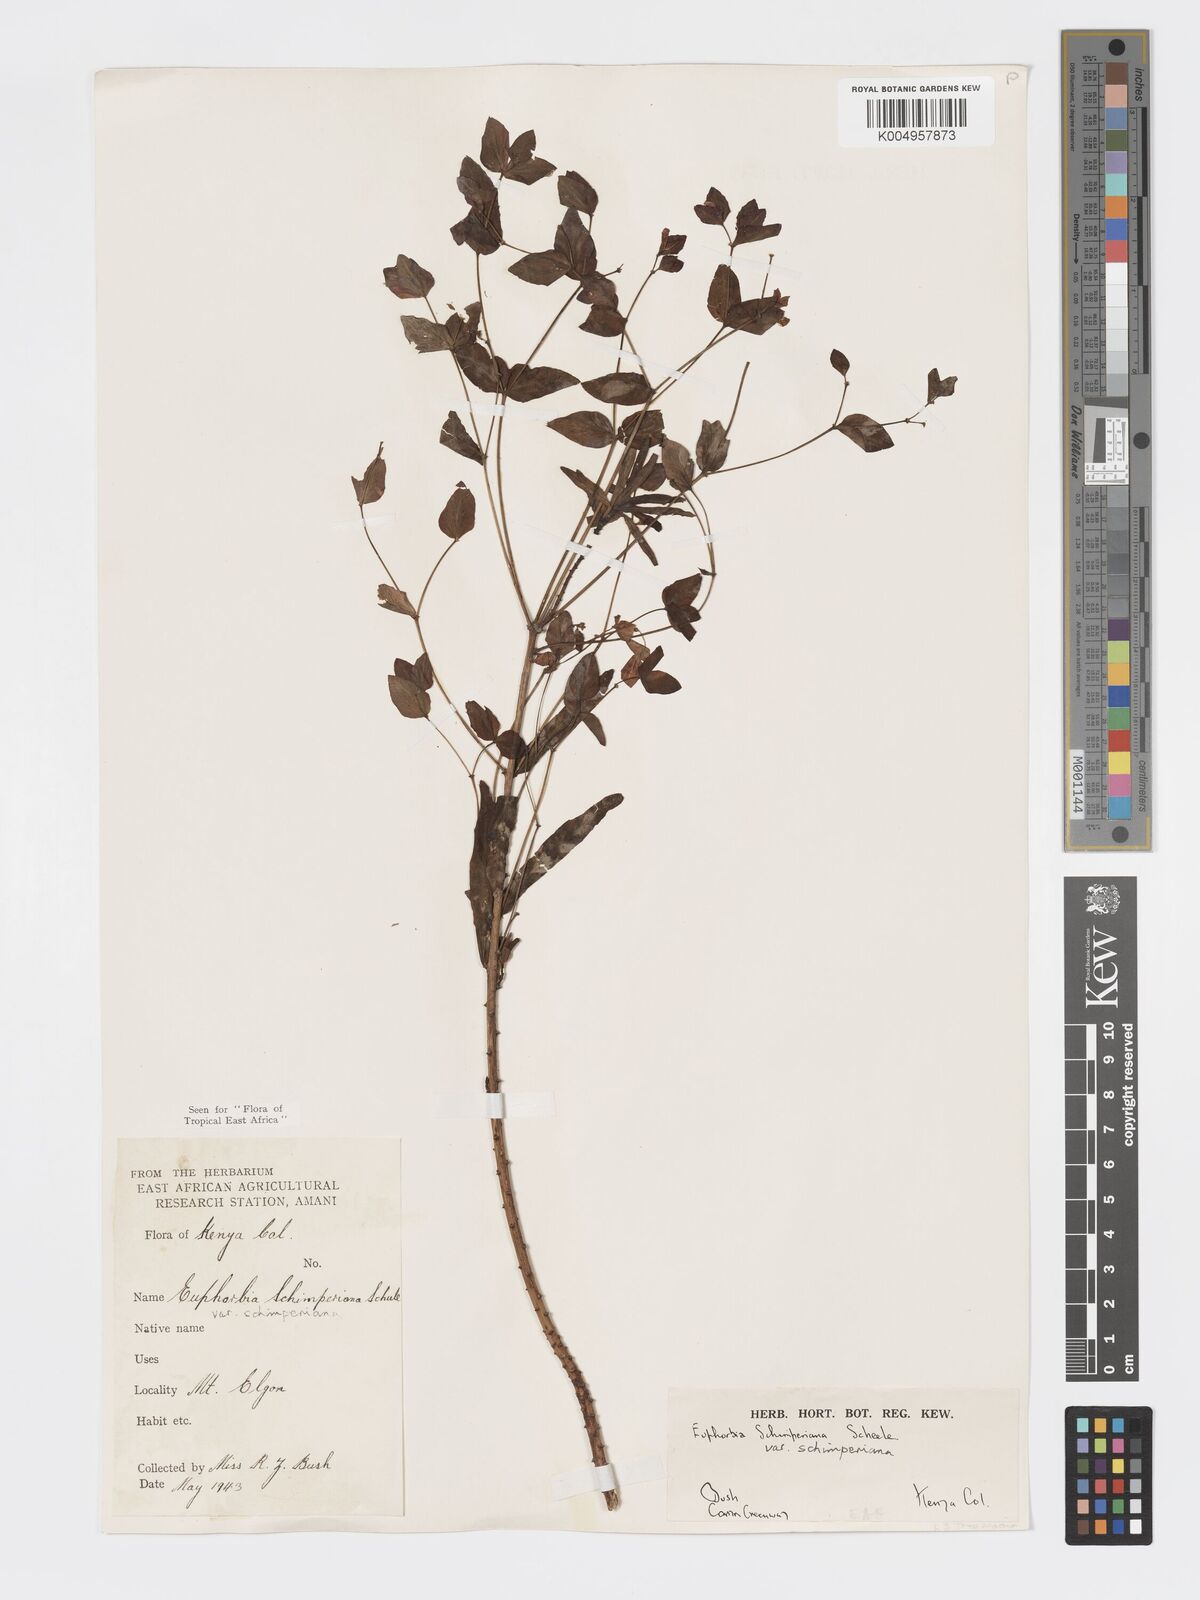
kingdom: Plantae
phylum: Tracheophyta
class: Magnoliopsida
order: Malpighiales
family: Euphorbiaceae
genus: Euphorbia
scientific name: Euphorbia schimperiana
